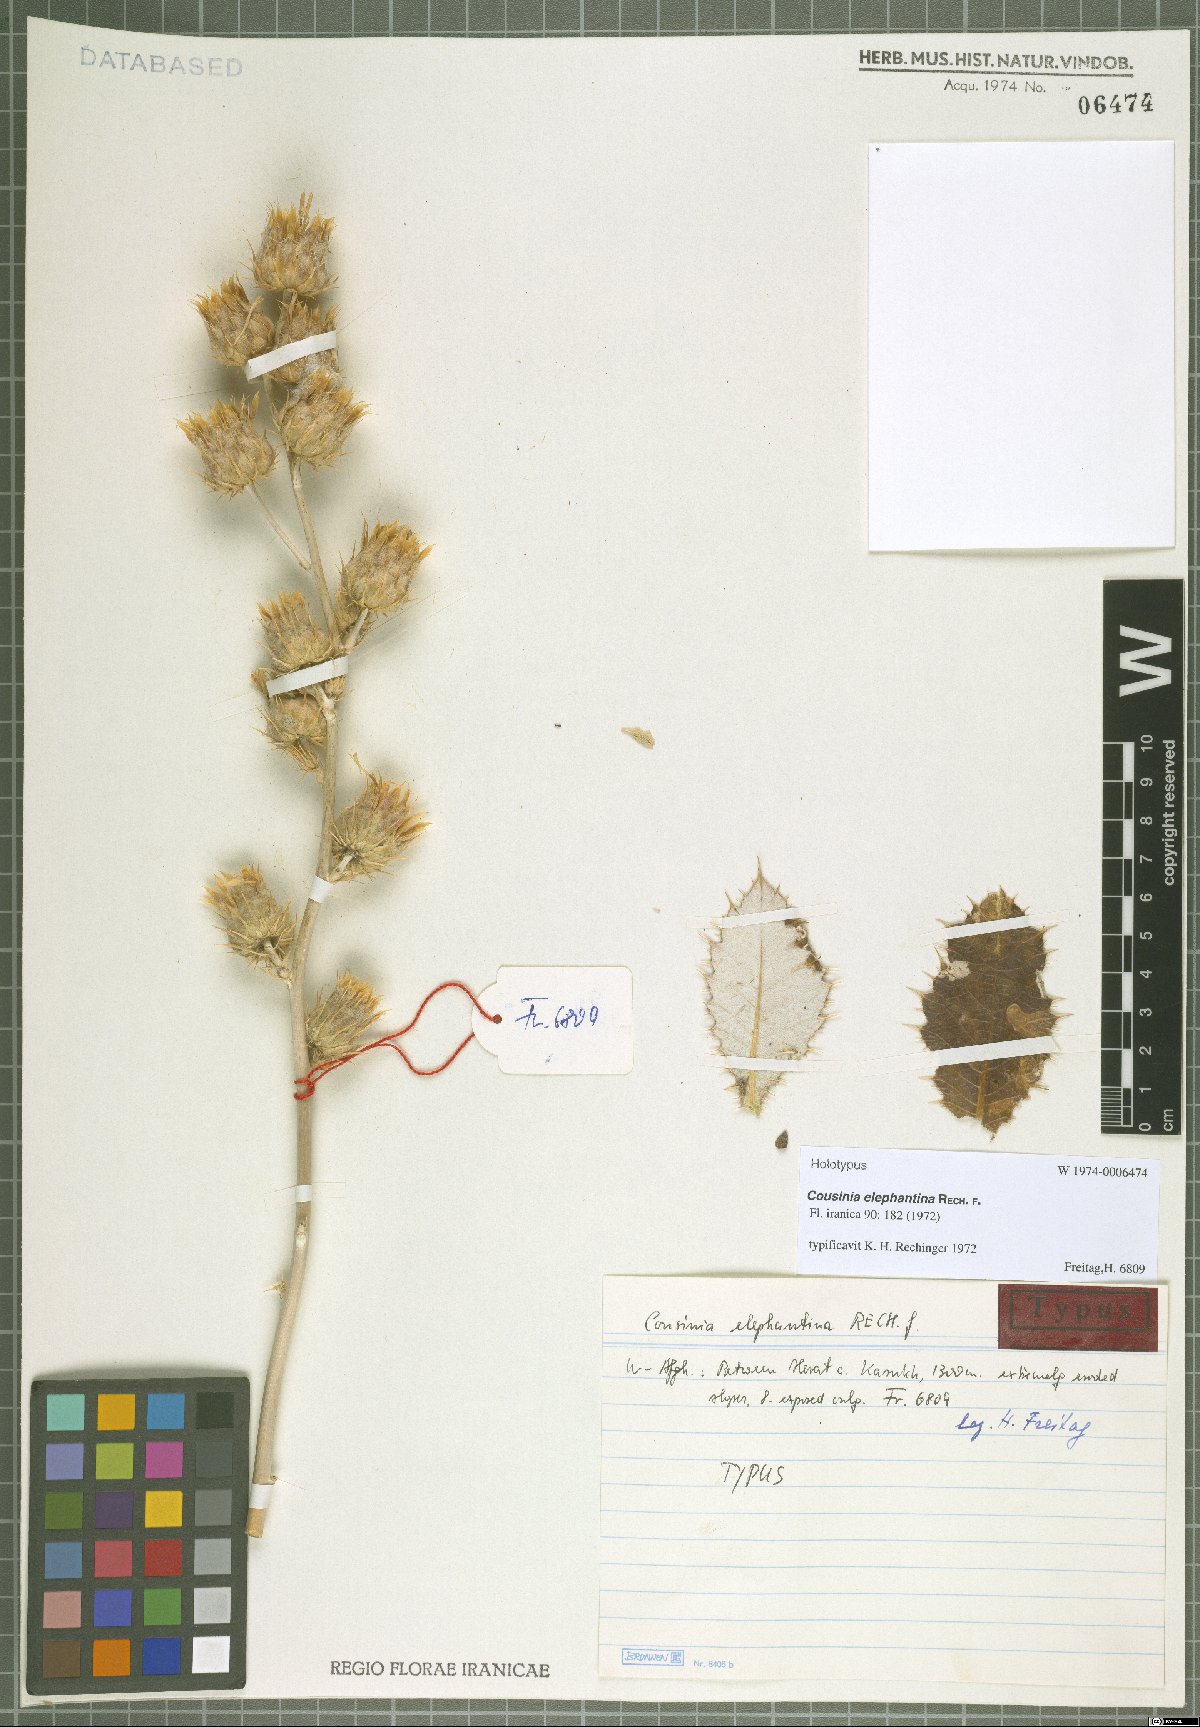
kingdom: Plantae
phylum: Tracheophyta
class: Magnoliopsida
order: Asterales
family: Asteraceae
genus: Cousinia
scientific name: Cousinia elephantina
